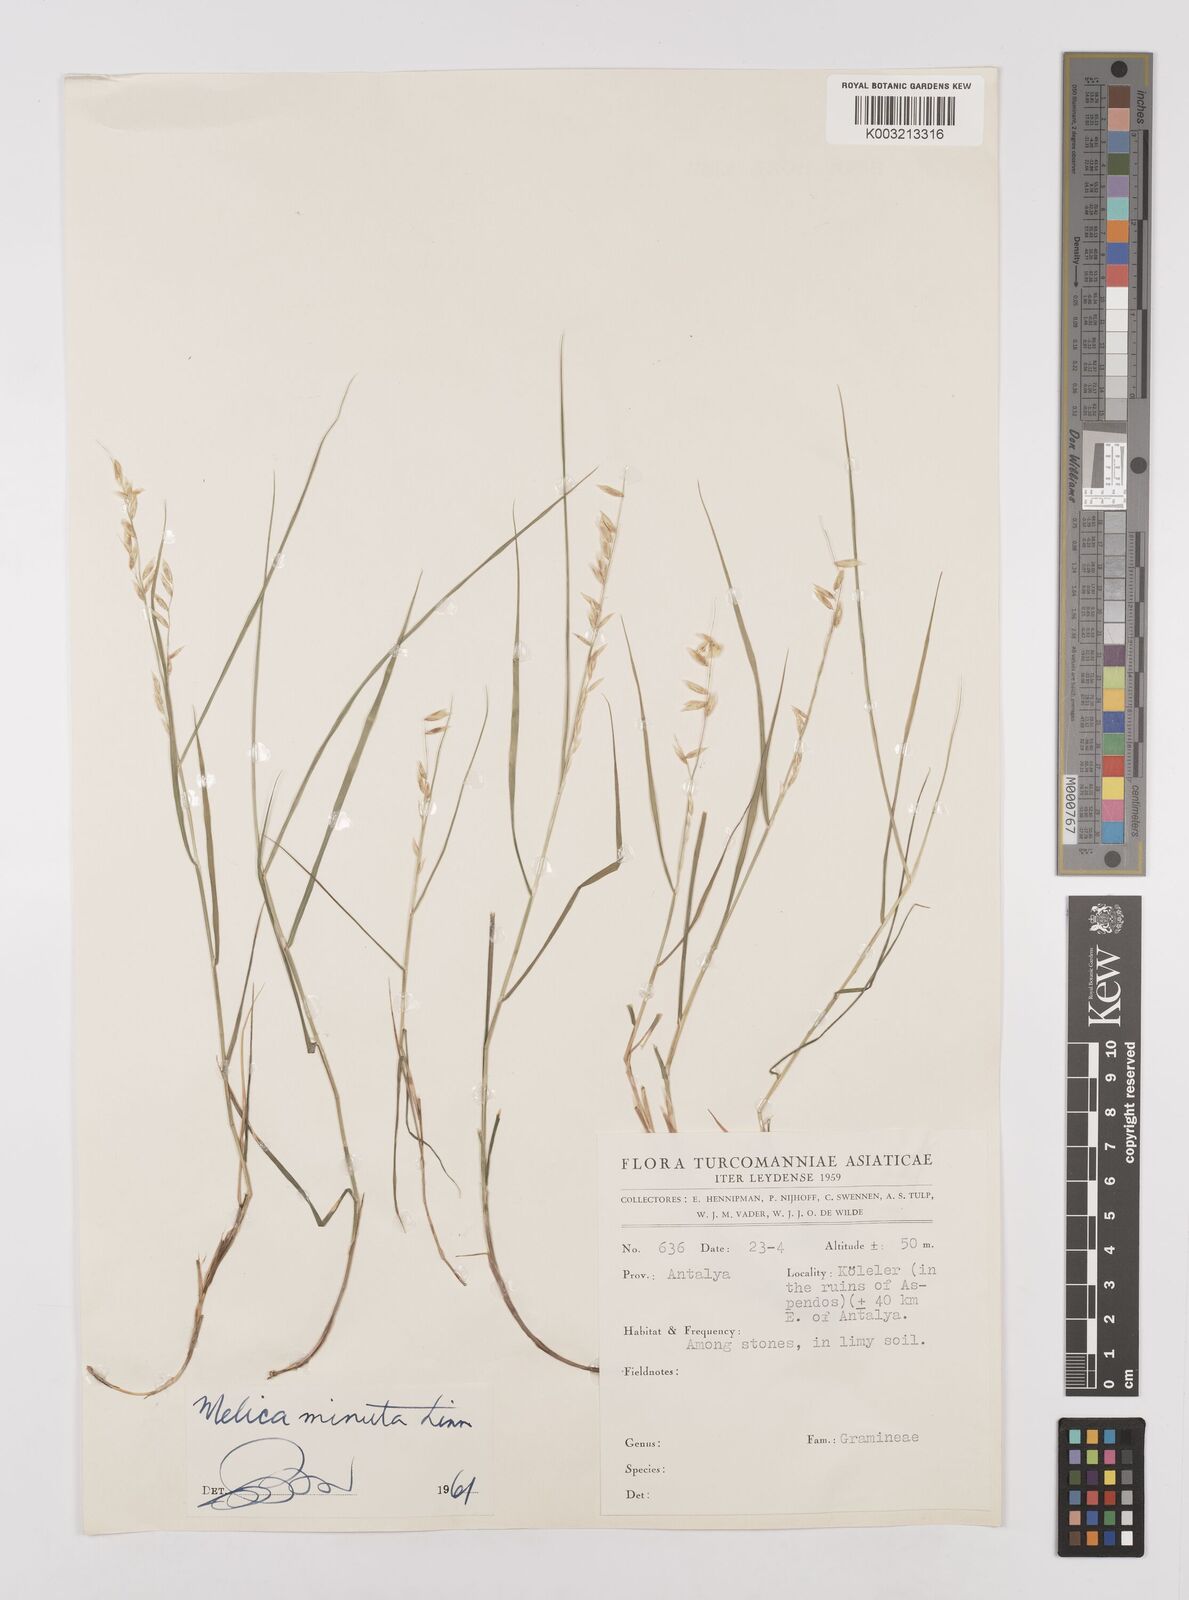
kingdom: Plantae
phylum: Tracheophyta
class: Liliopsida
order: Poales
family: Poaceae
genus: Melica
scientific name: Melica minuta
